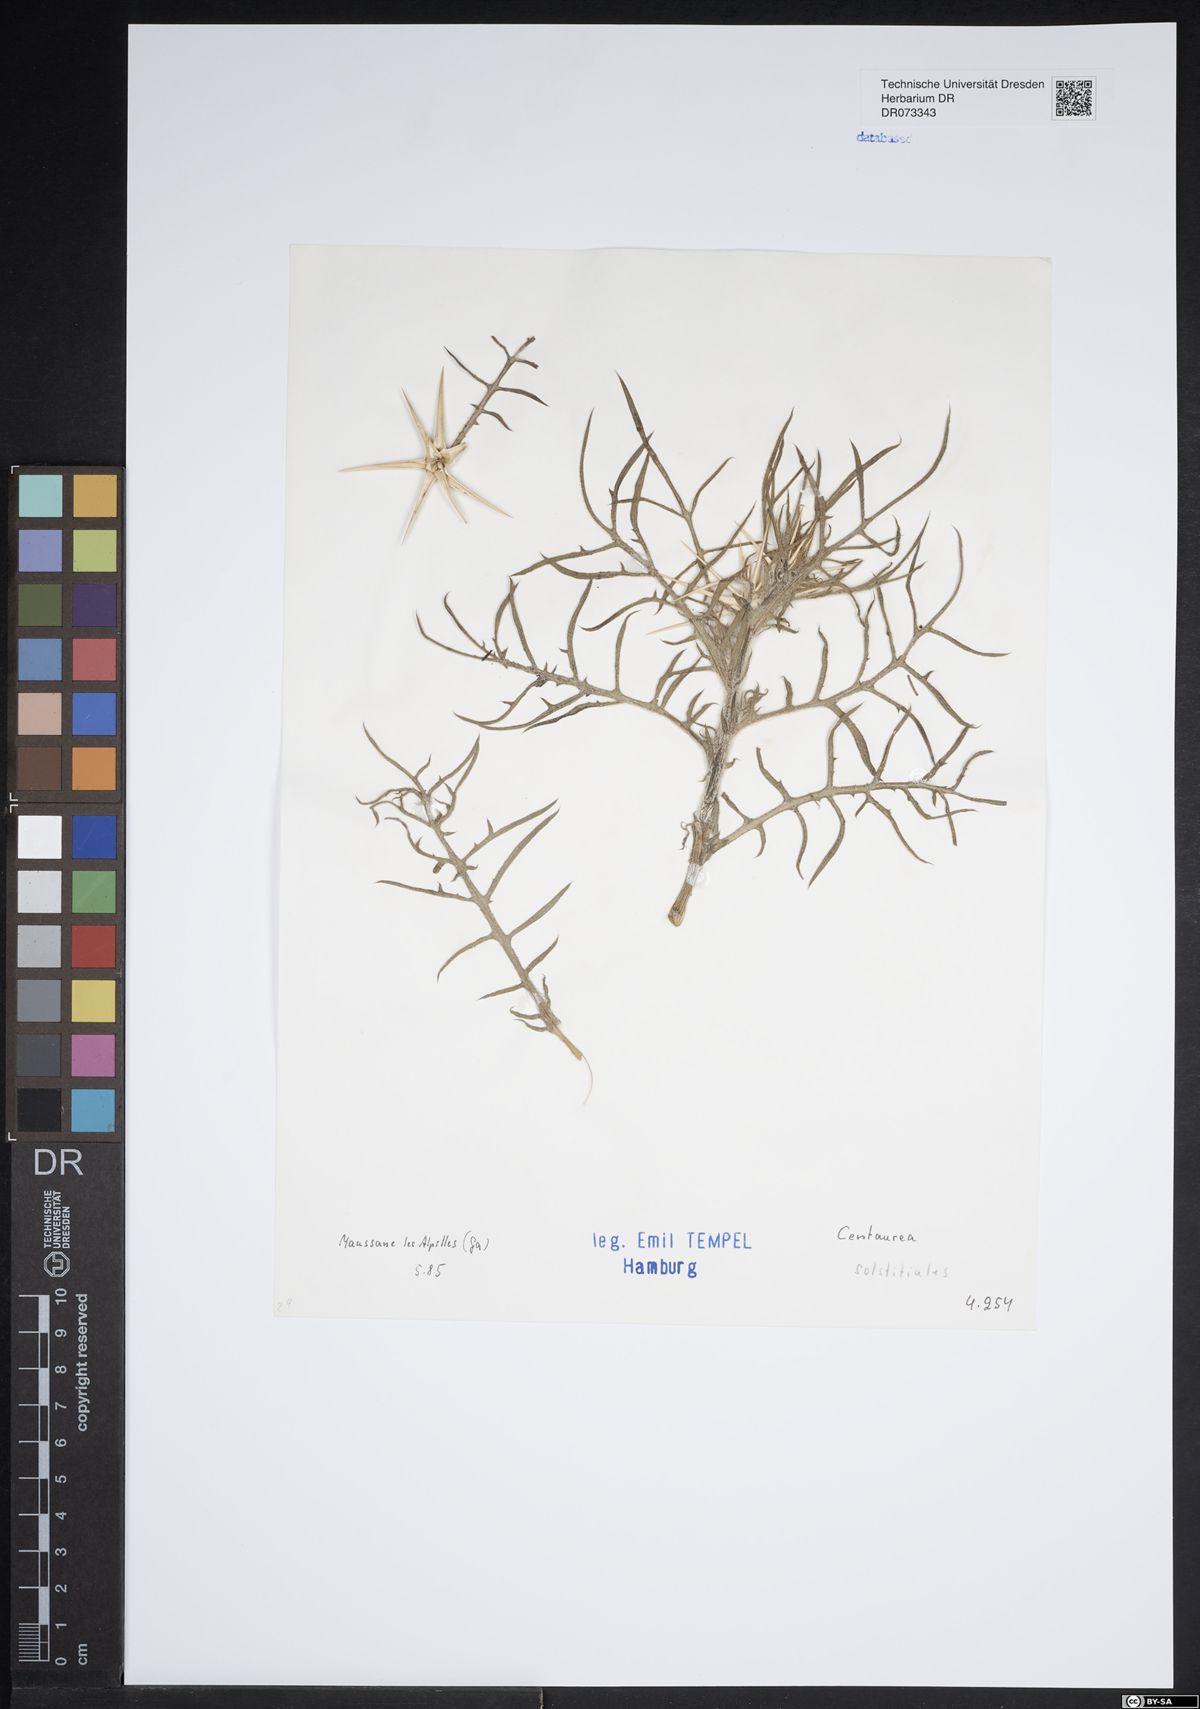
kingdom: Plantae
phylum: Tracheophyta
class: Magnoliopsida
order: Asterales
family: Asteraceae
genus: Centaurea
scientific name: Centaurea solstitialis
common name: Yellow star-thistle
